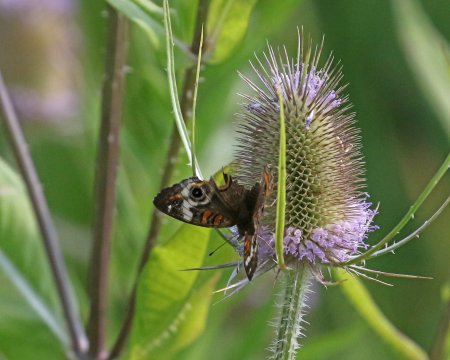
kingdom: Animalia
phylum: Arthropoda
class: Insecta
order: Lepidoptera
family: Nymphalidae
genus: Junonia
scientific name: Junonia coenia
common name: Common Buckeye
